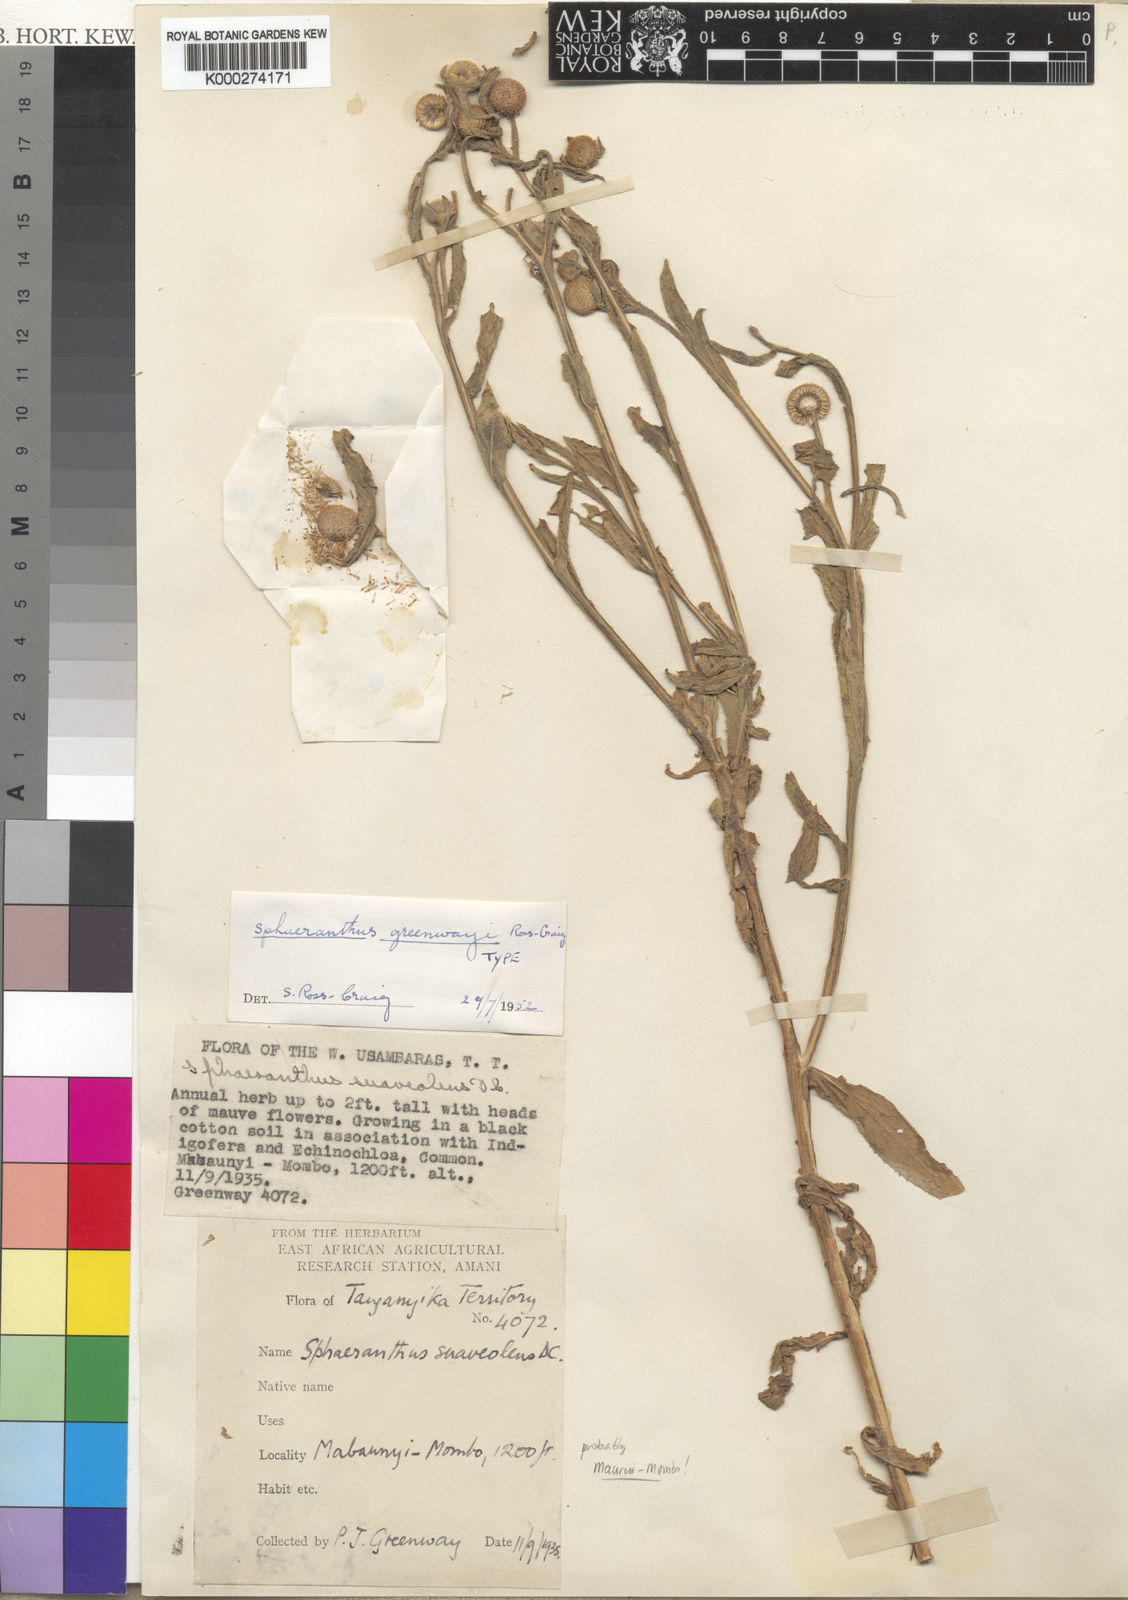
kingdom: Plantae
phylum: Tracheophyta
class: Magnoliopsida
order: Asterales
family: Asteraceae
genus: Sphaeranthus
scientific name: Sphaeranthus greenwayi
